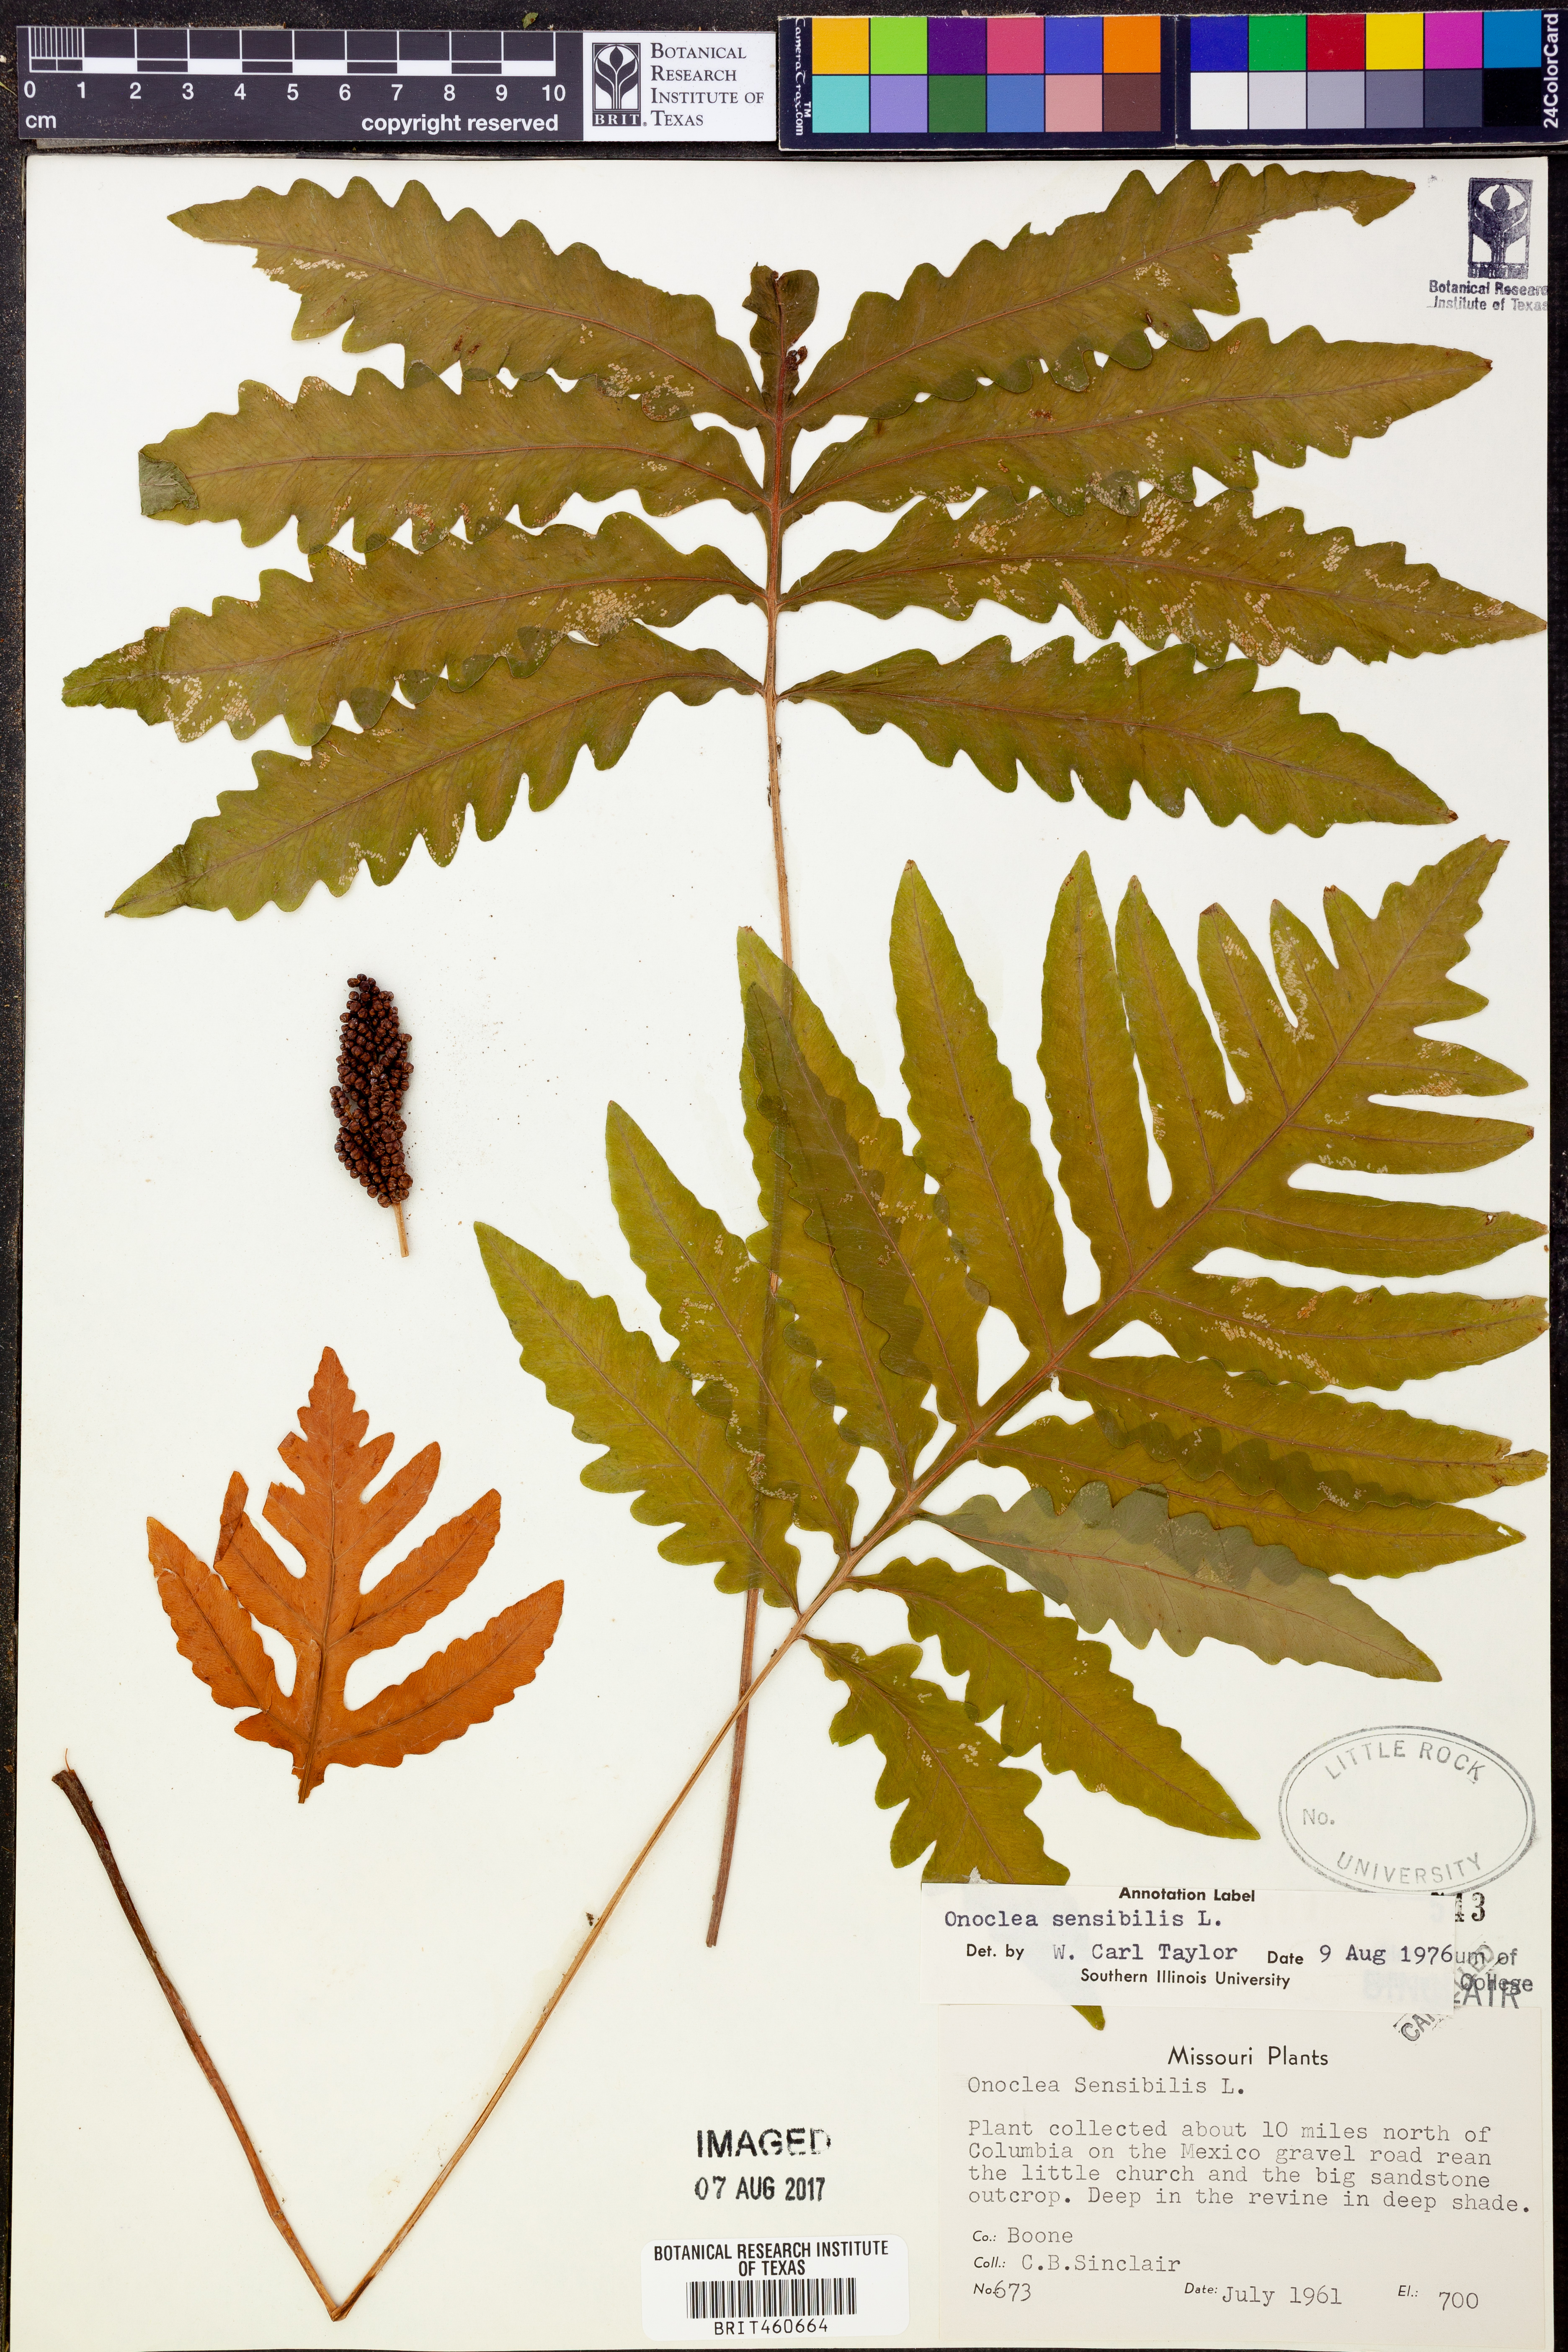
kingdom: Plantae
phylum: Tracheophyta
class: Polypodiopsida
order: Polypodiales
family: Onocleaceae
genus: Onoclea
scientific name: Onoclea sensibilis
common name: Sensitive fern
